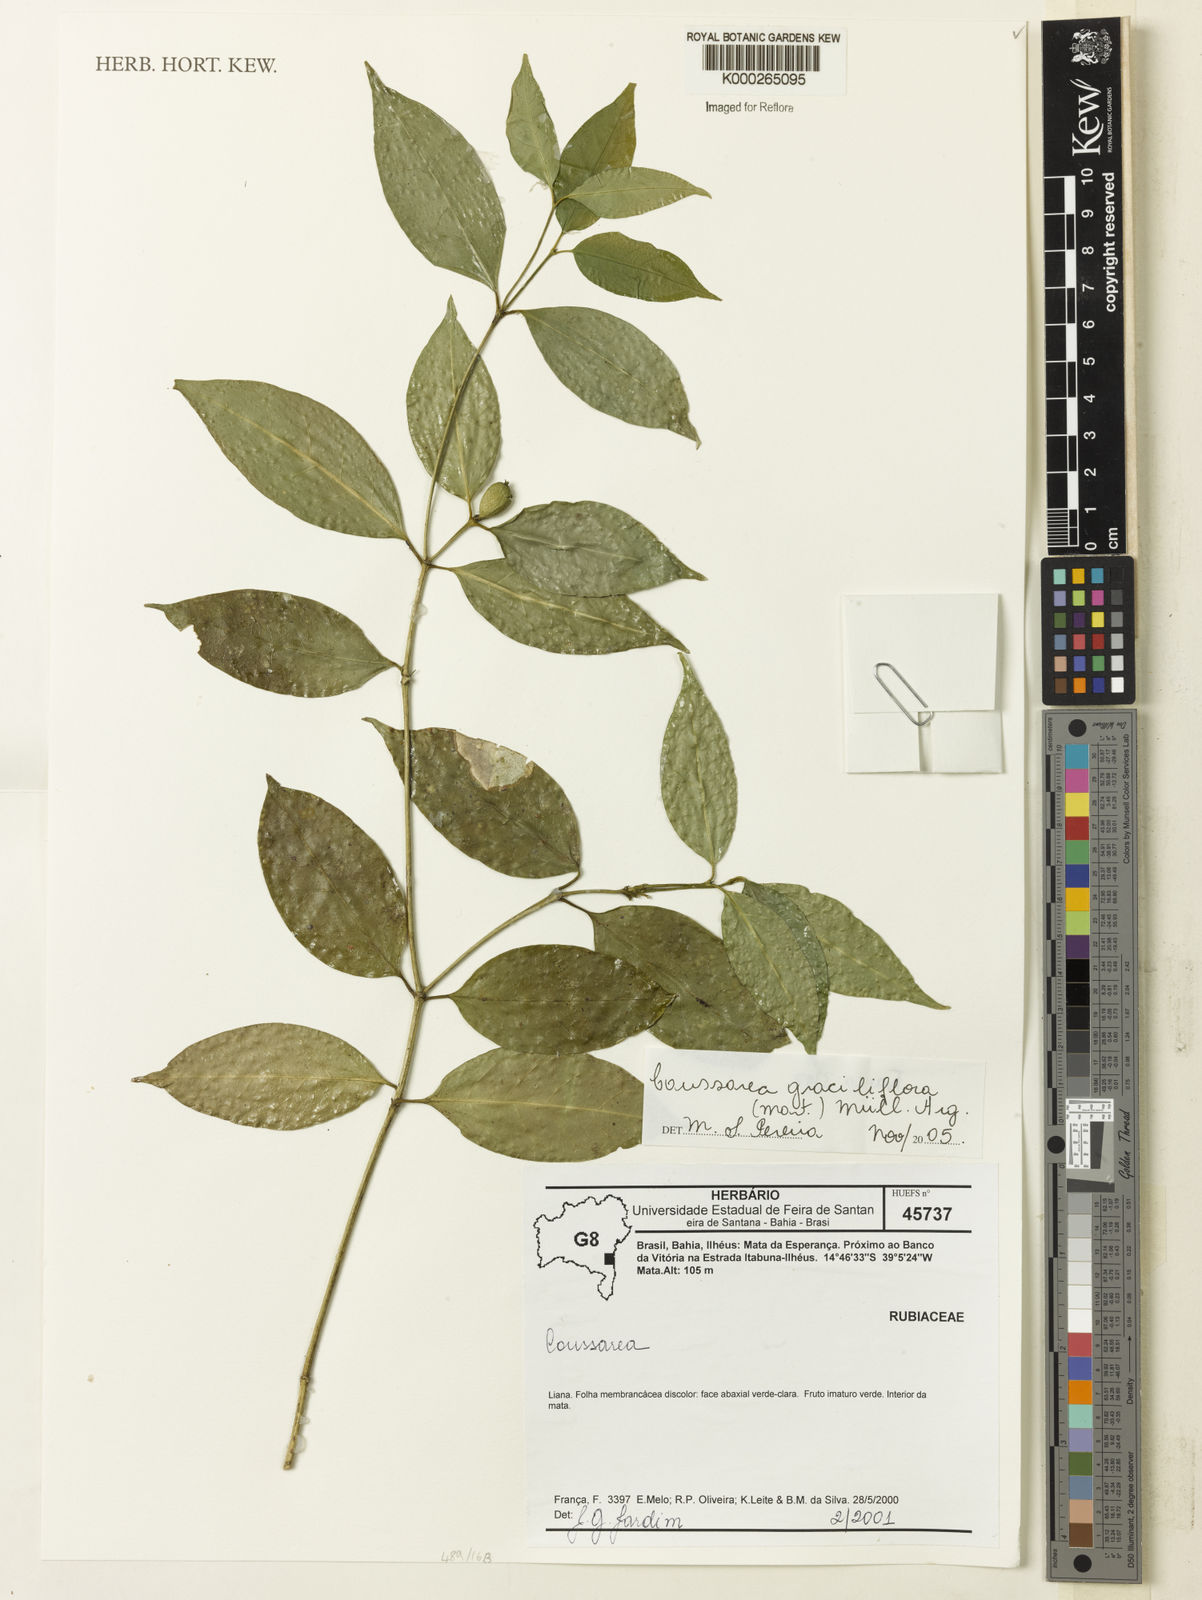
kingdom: Plantae
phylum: Tracheophyta
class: Magnoliopsida
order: Gentianales
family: Rubiaceae
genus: Coussarea
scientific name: Coussarea
